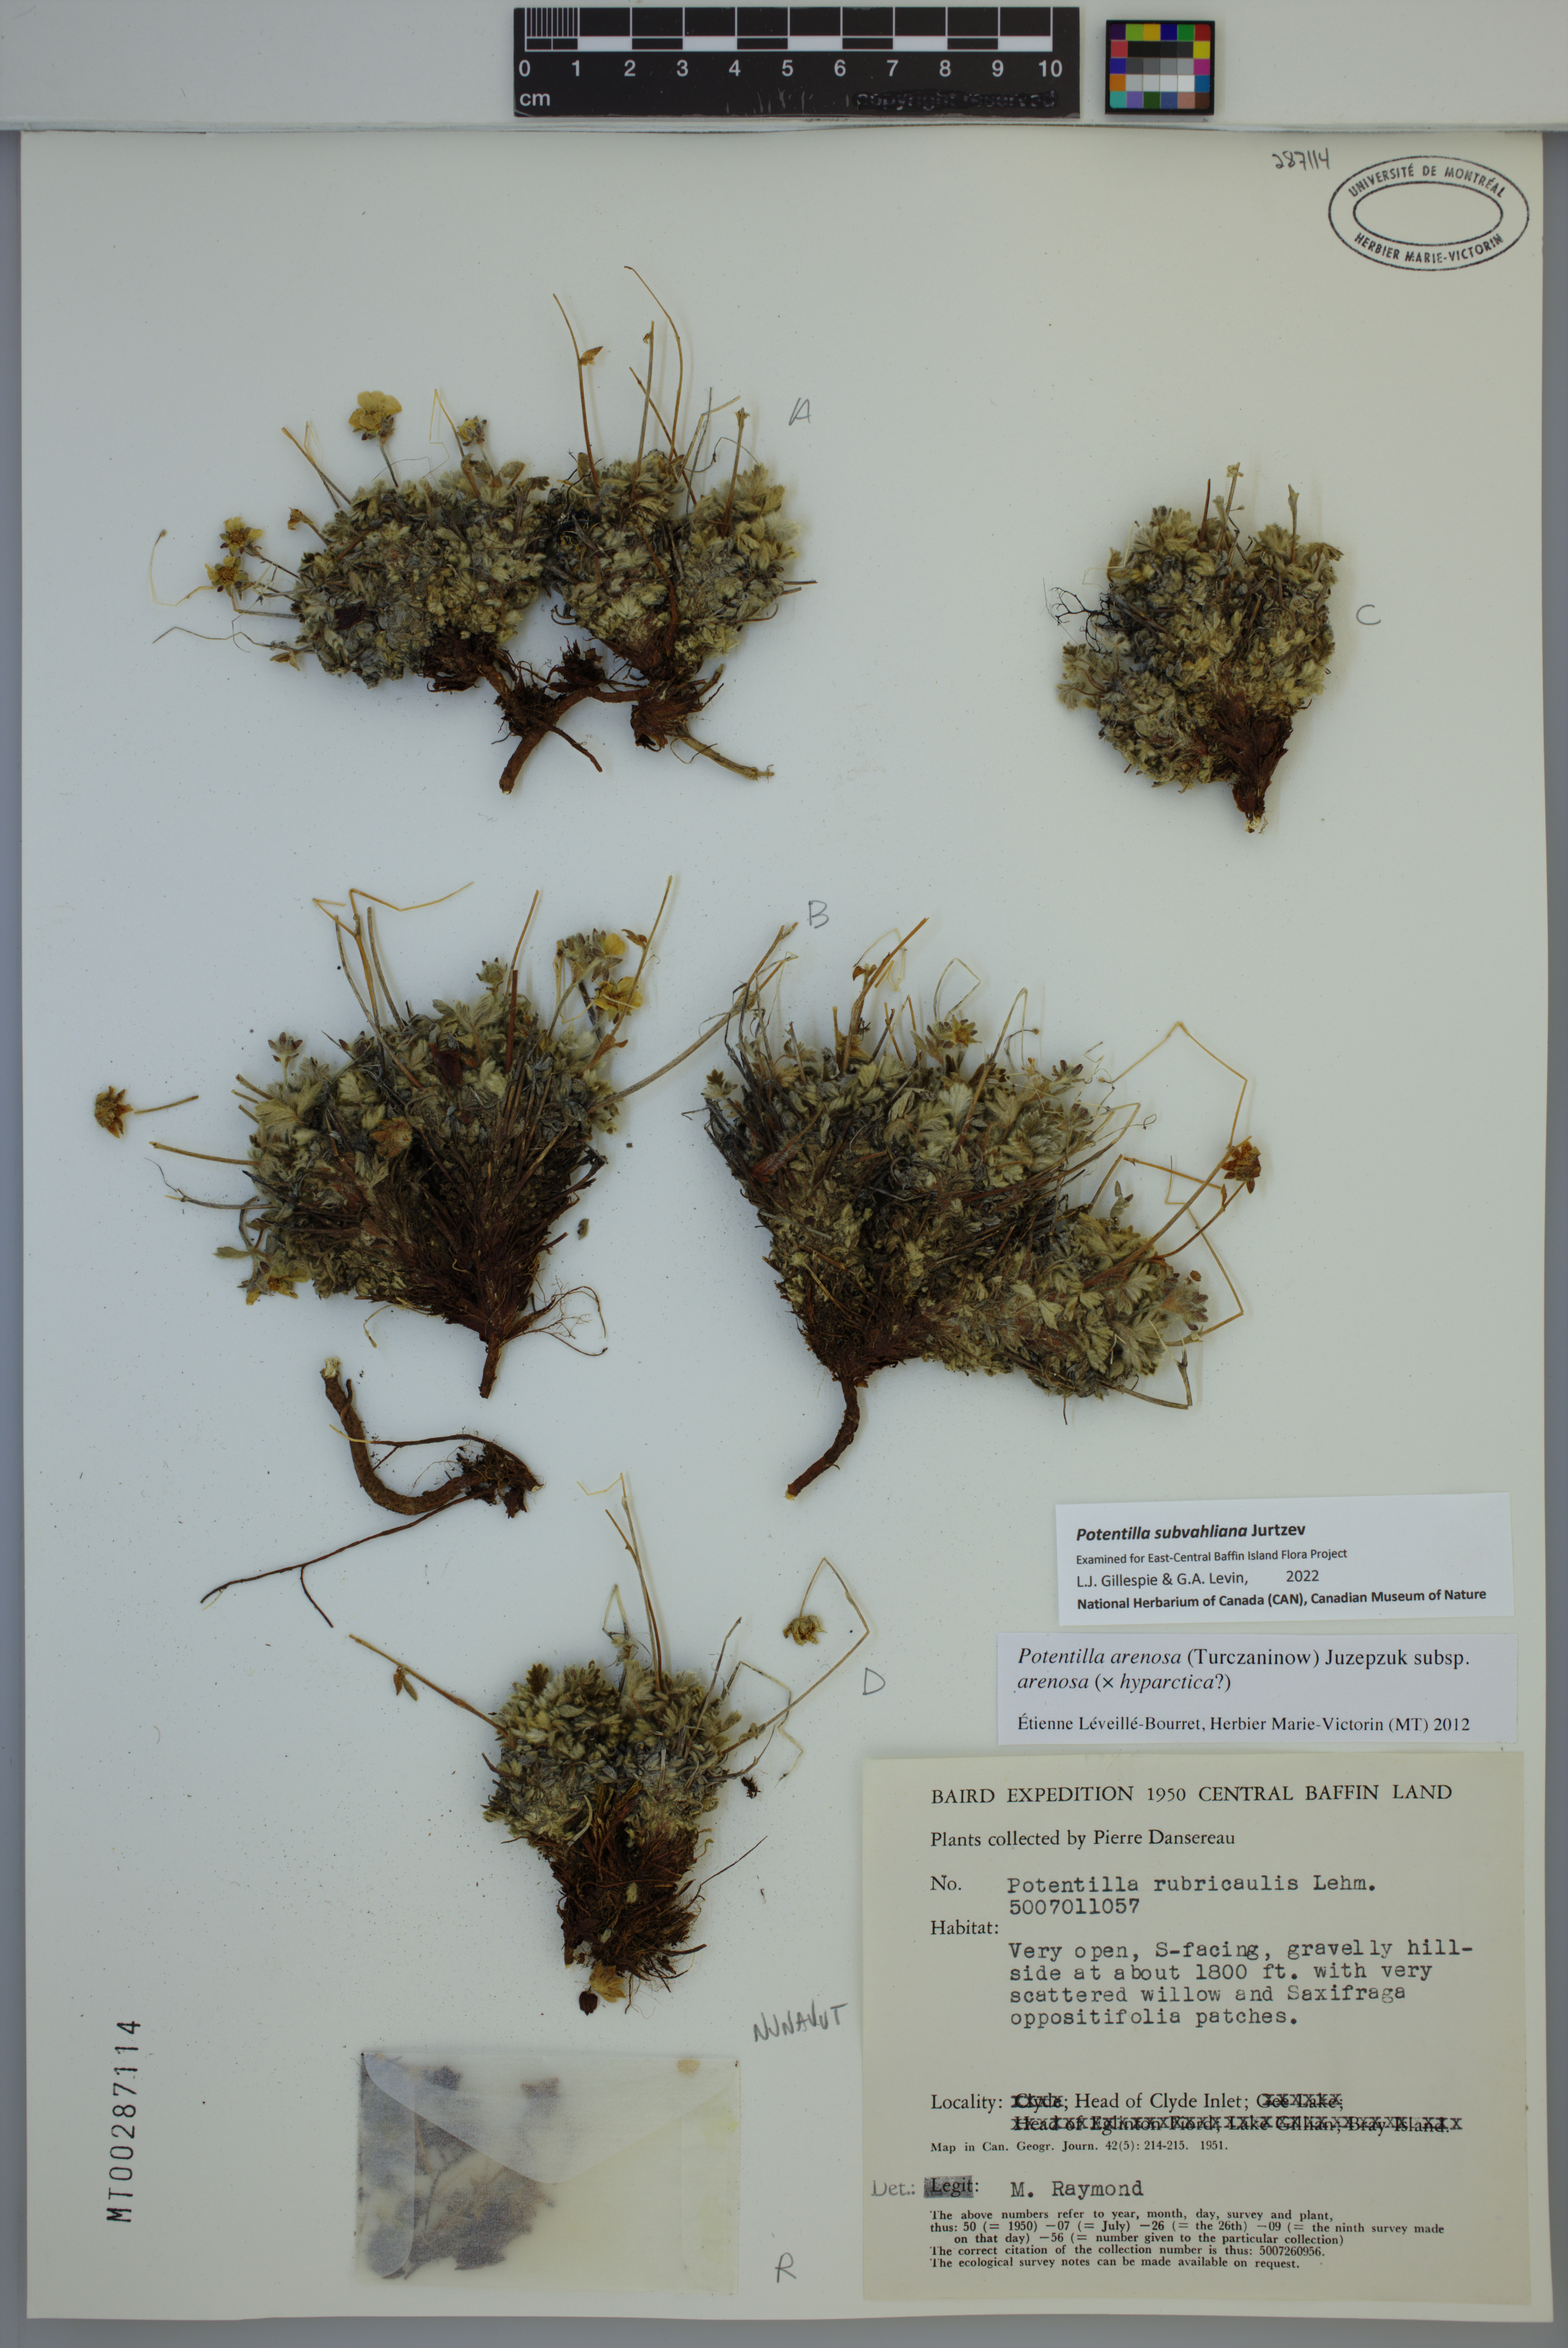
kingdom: Plantae
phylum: Tracheophyta
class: Magnoliopsida
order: Rosales
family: Rosaceae
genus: Potentilla
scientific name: Potentilla subvahliana
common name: Far northern cinquefoil
